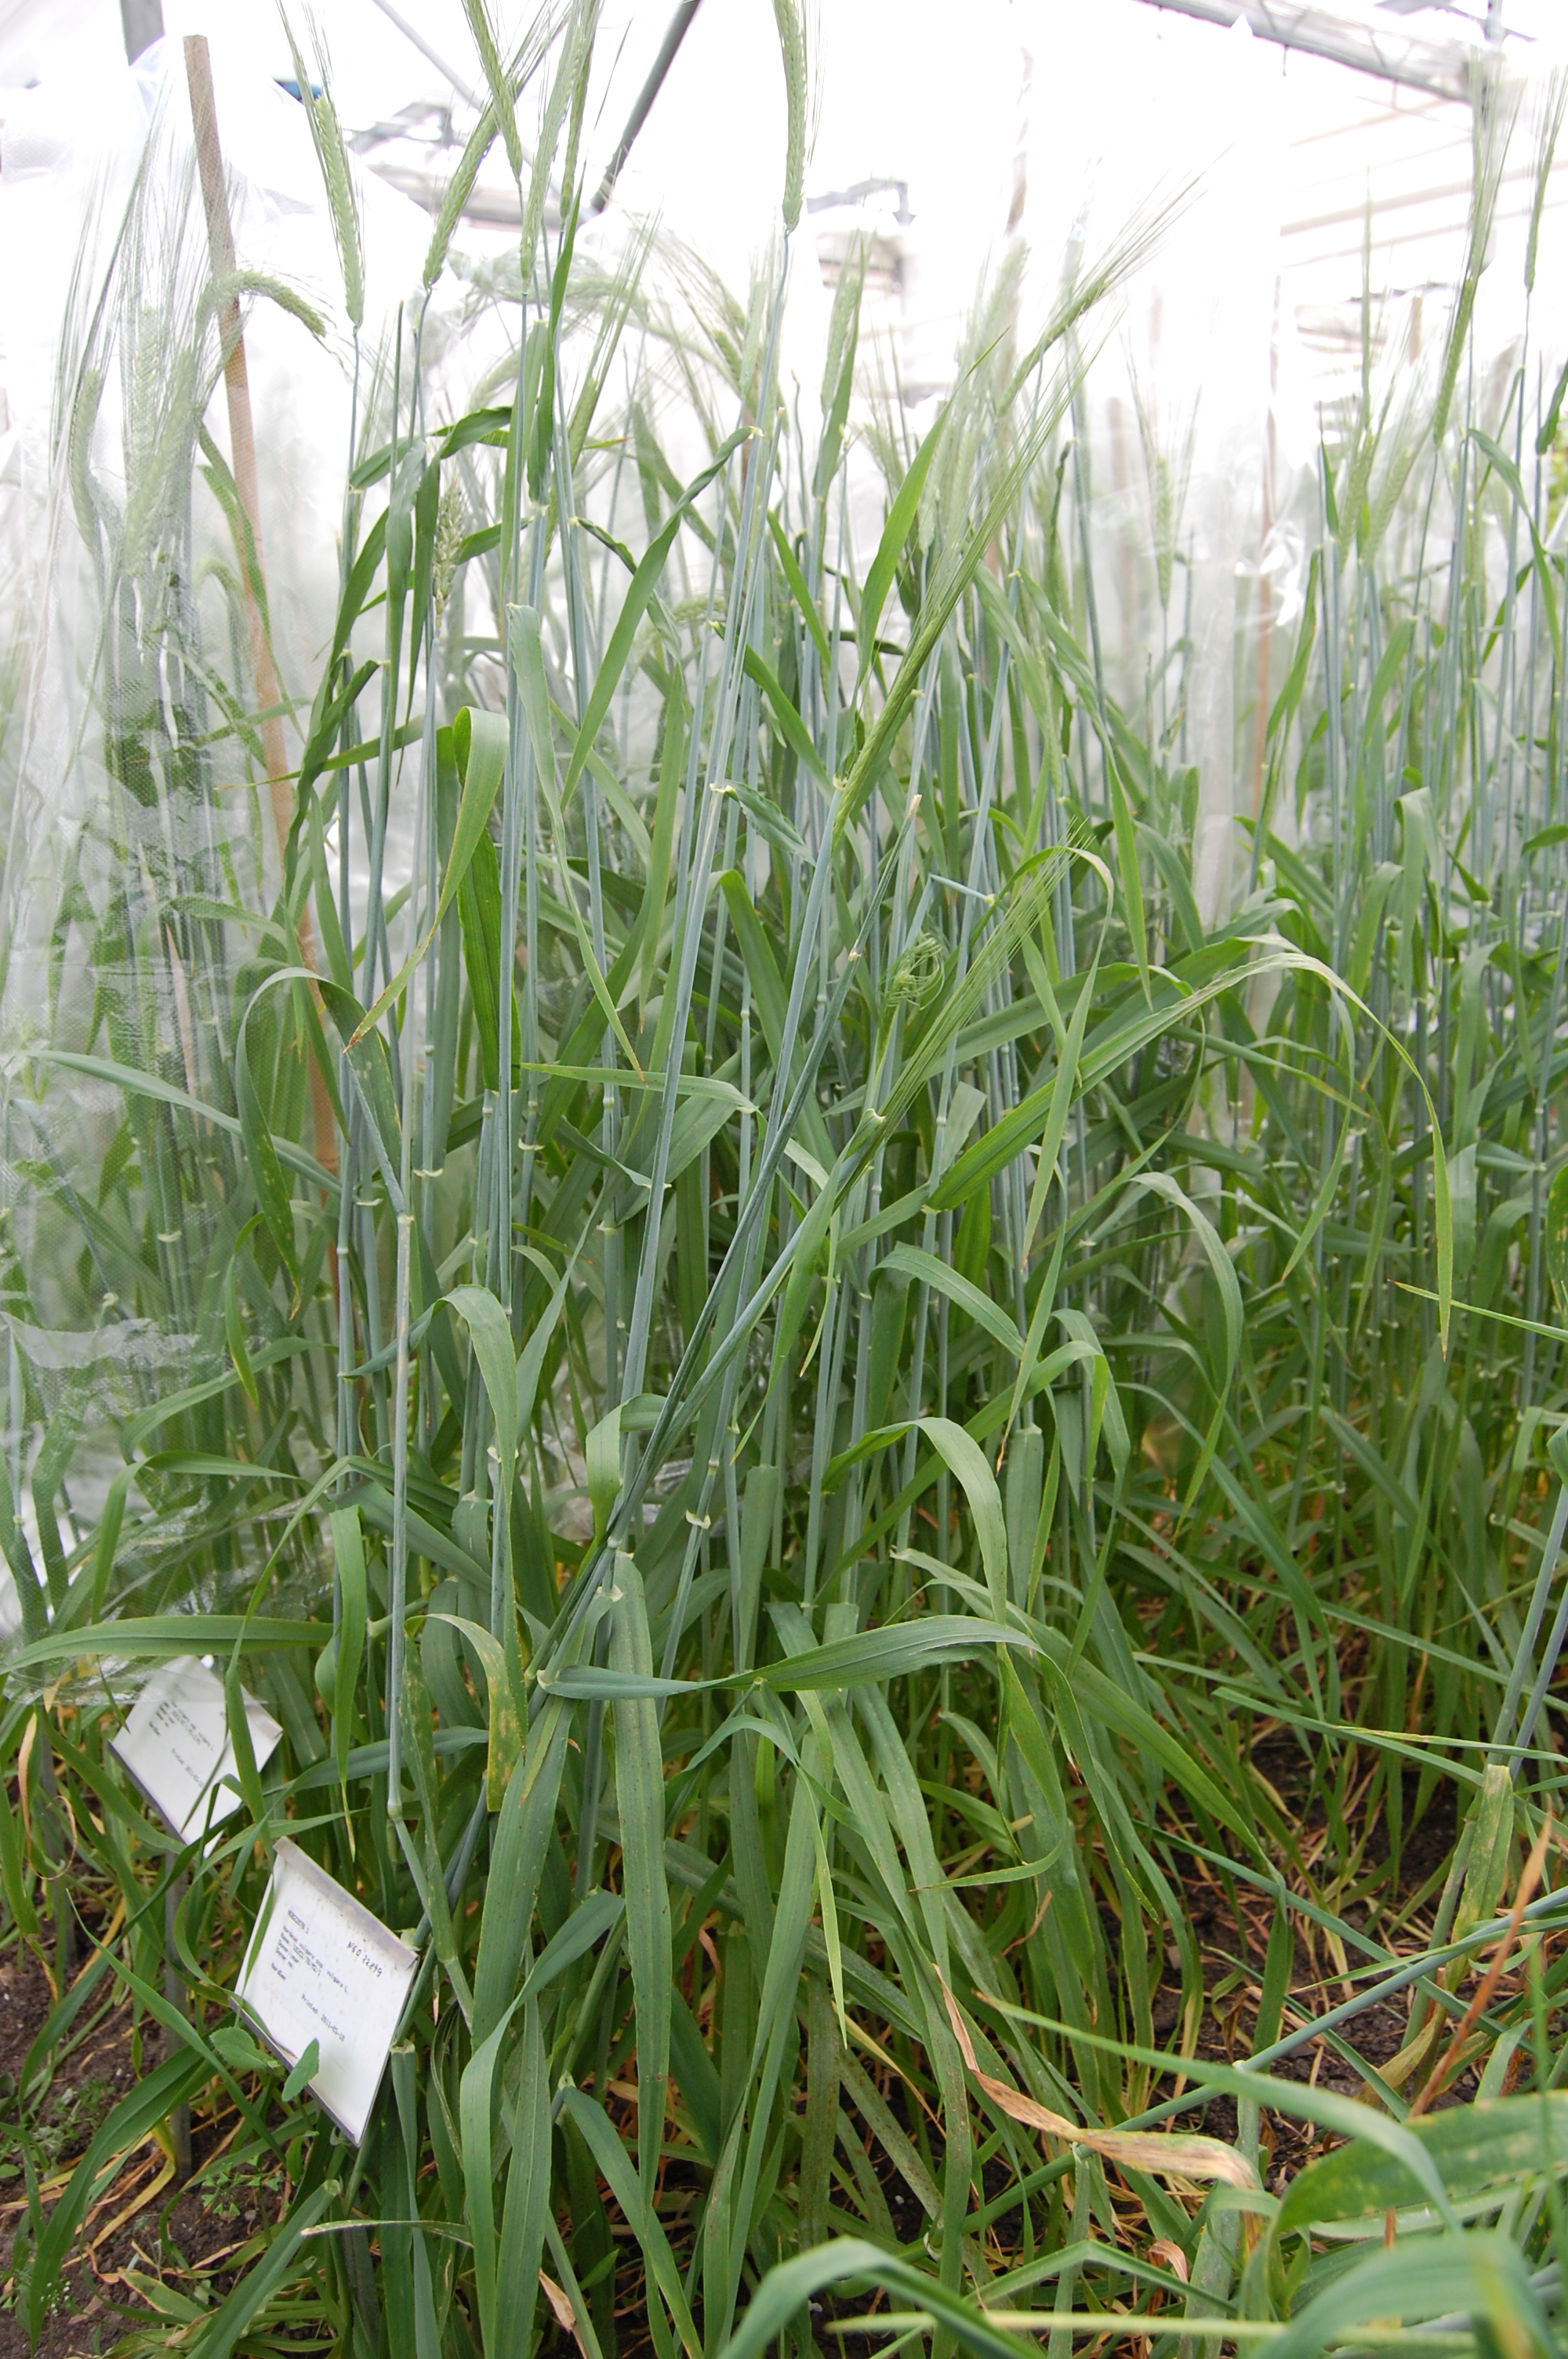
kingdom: Plantae
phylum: Tracheophyta
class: Liliopsida
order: Poales
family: Poaceae
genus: Hordeum
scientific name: Hordeum vulgare
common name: Common barley
